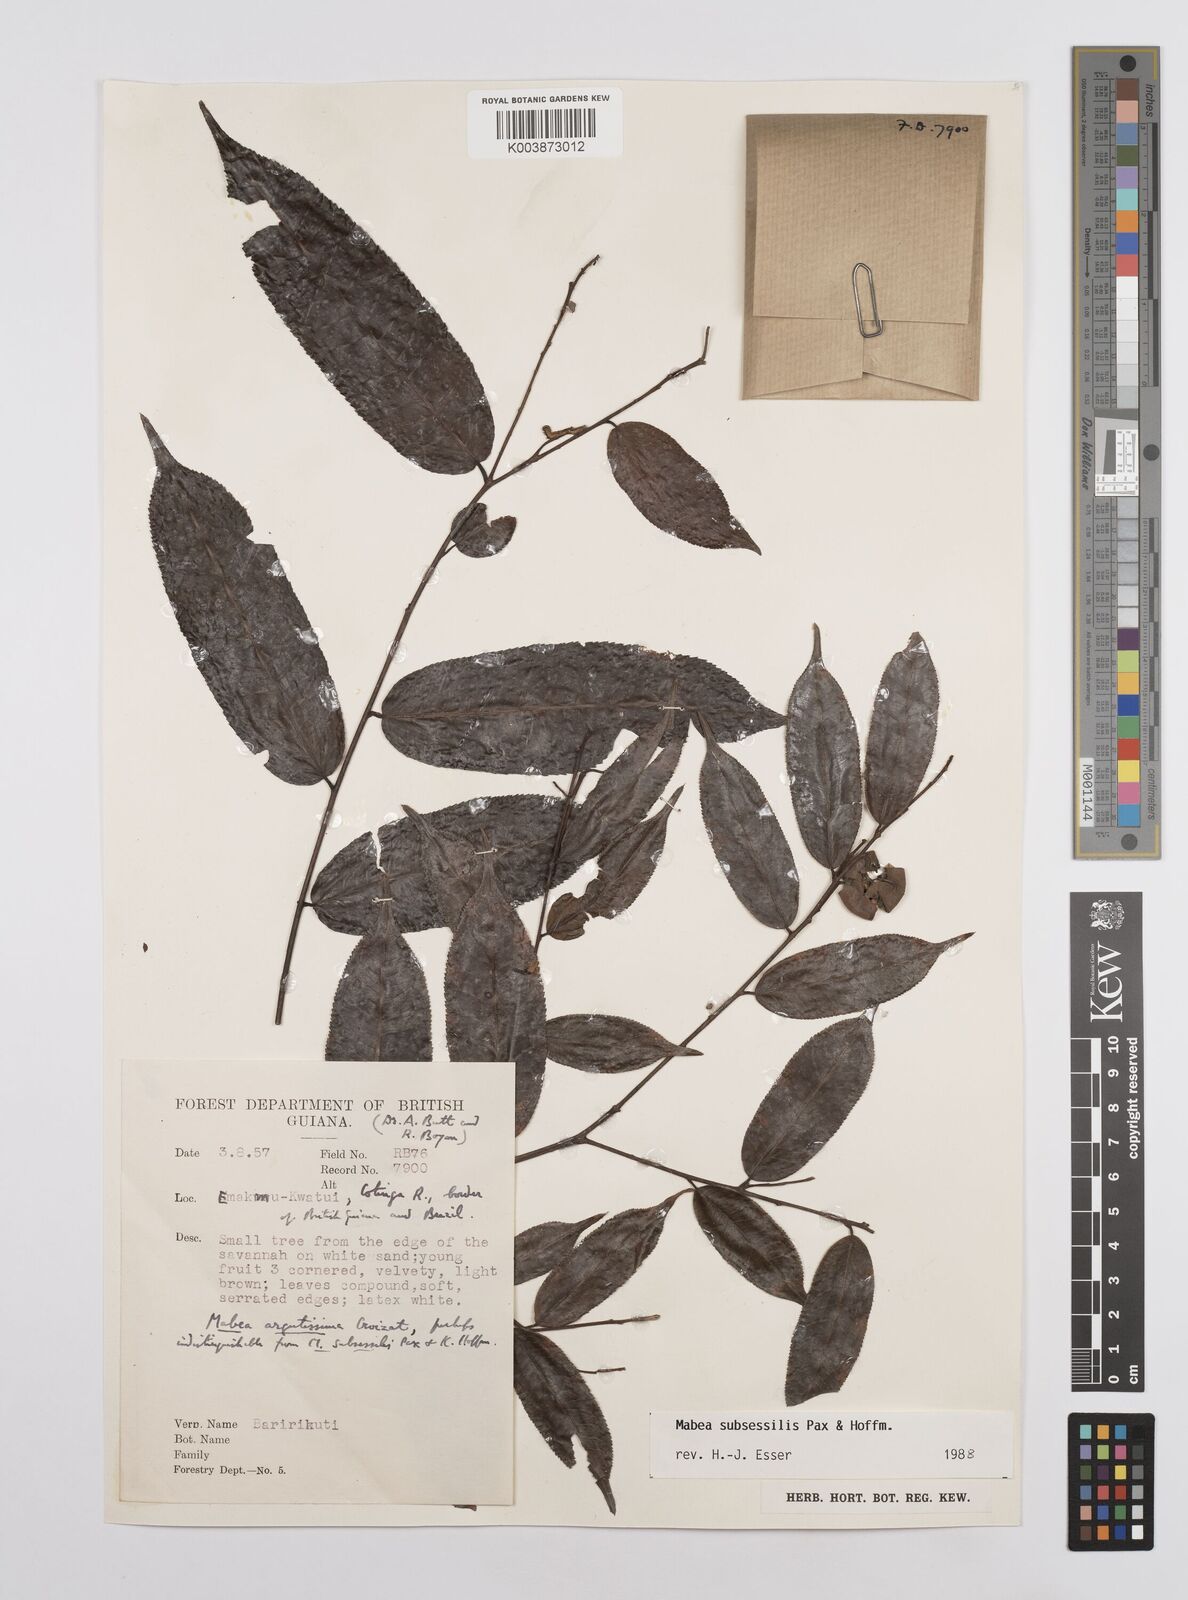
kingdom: Plantae
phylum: Tracheophyta
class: Magnoliopsida
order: Malpighiales
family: Euphorbiaceae
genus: Mabea
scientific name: Mabea subsessilis
